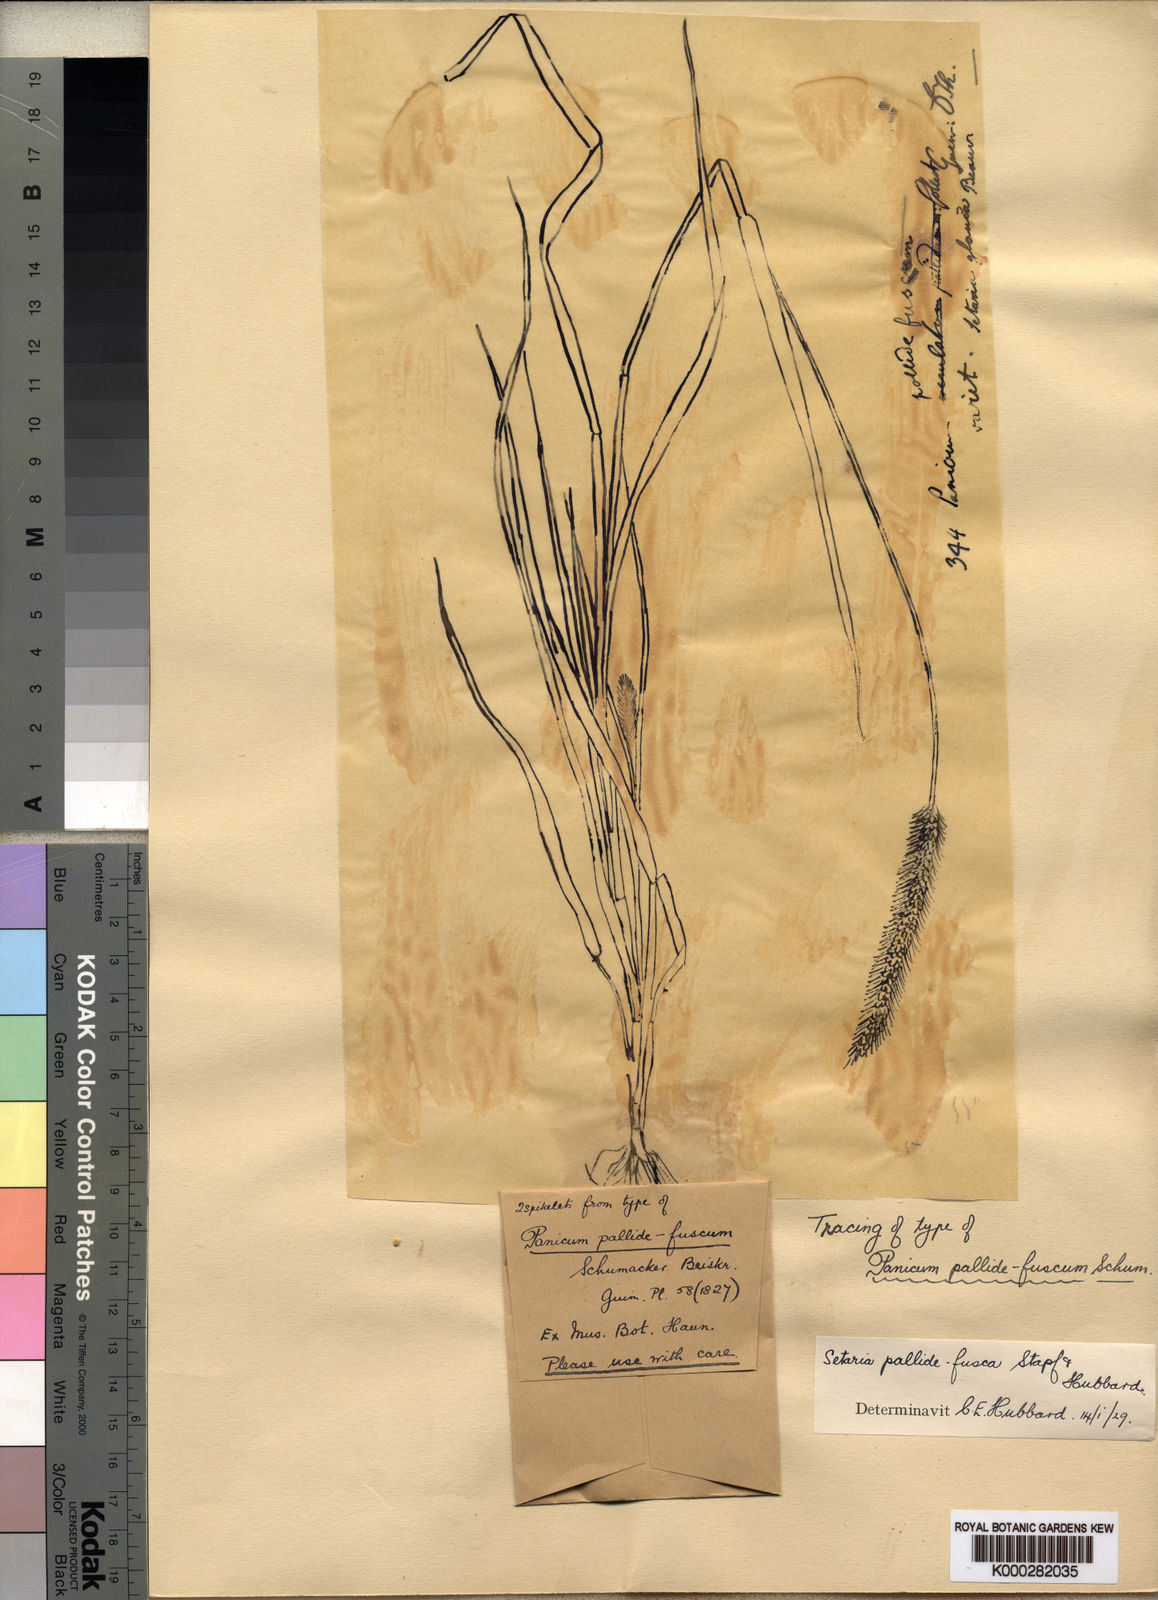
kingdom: Plantae
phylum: Tracheophyta
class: Liliopsida
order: Poales
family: Poaceae
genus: Setaria
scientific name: Setaria pumila
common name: Yellow bristle-grass
